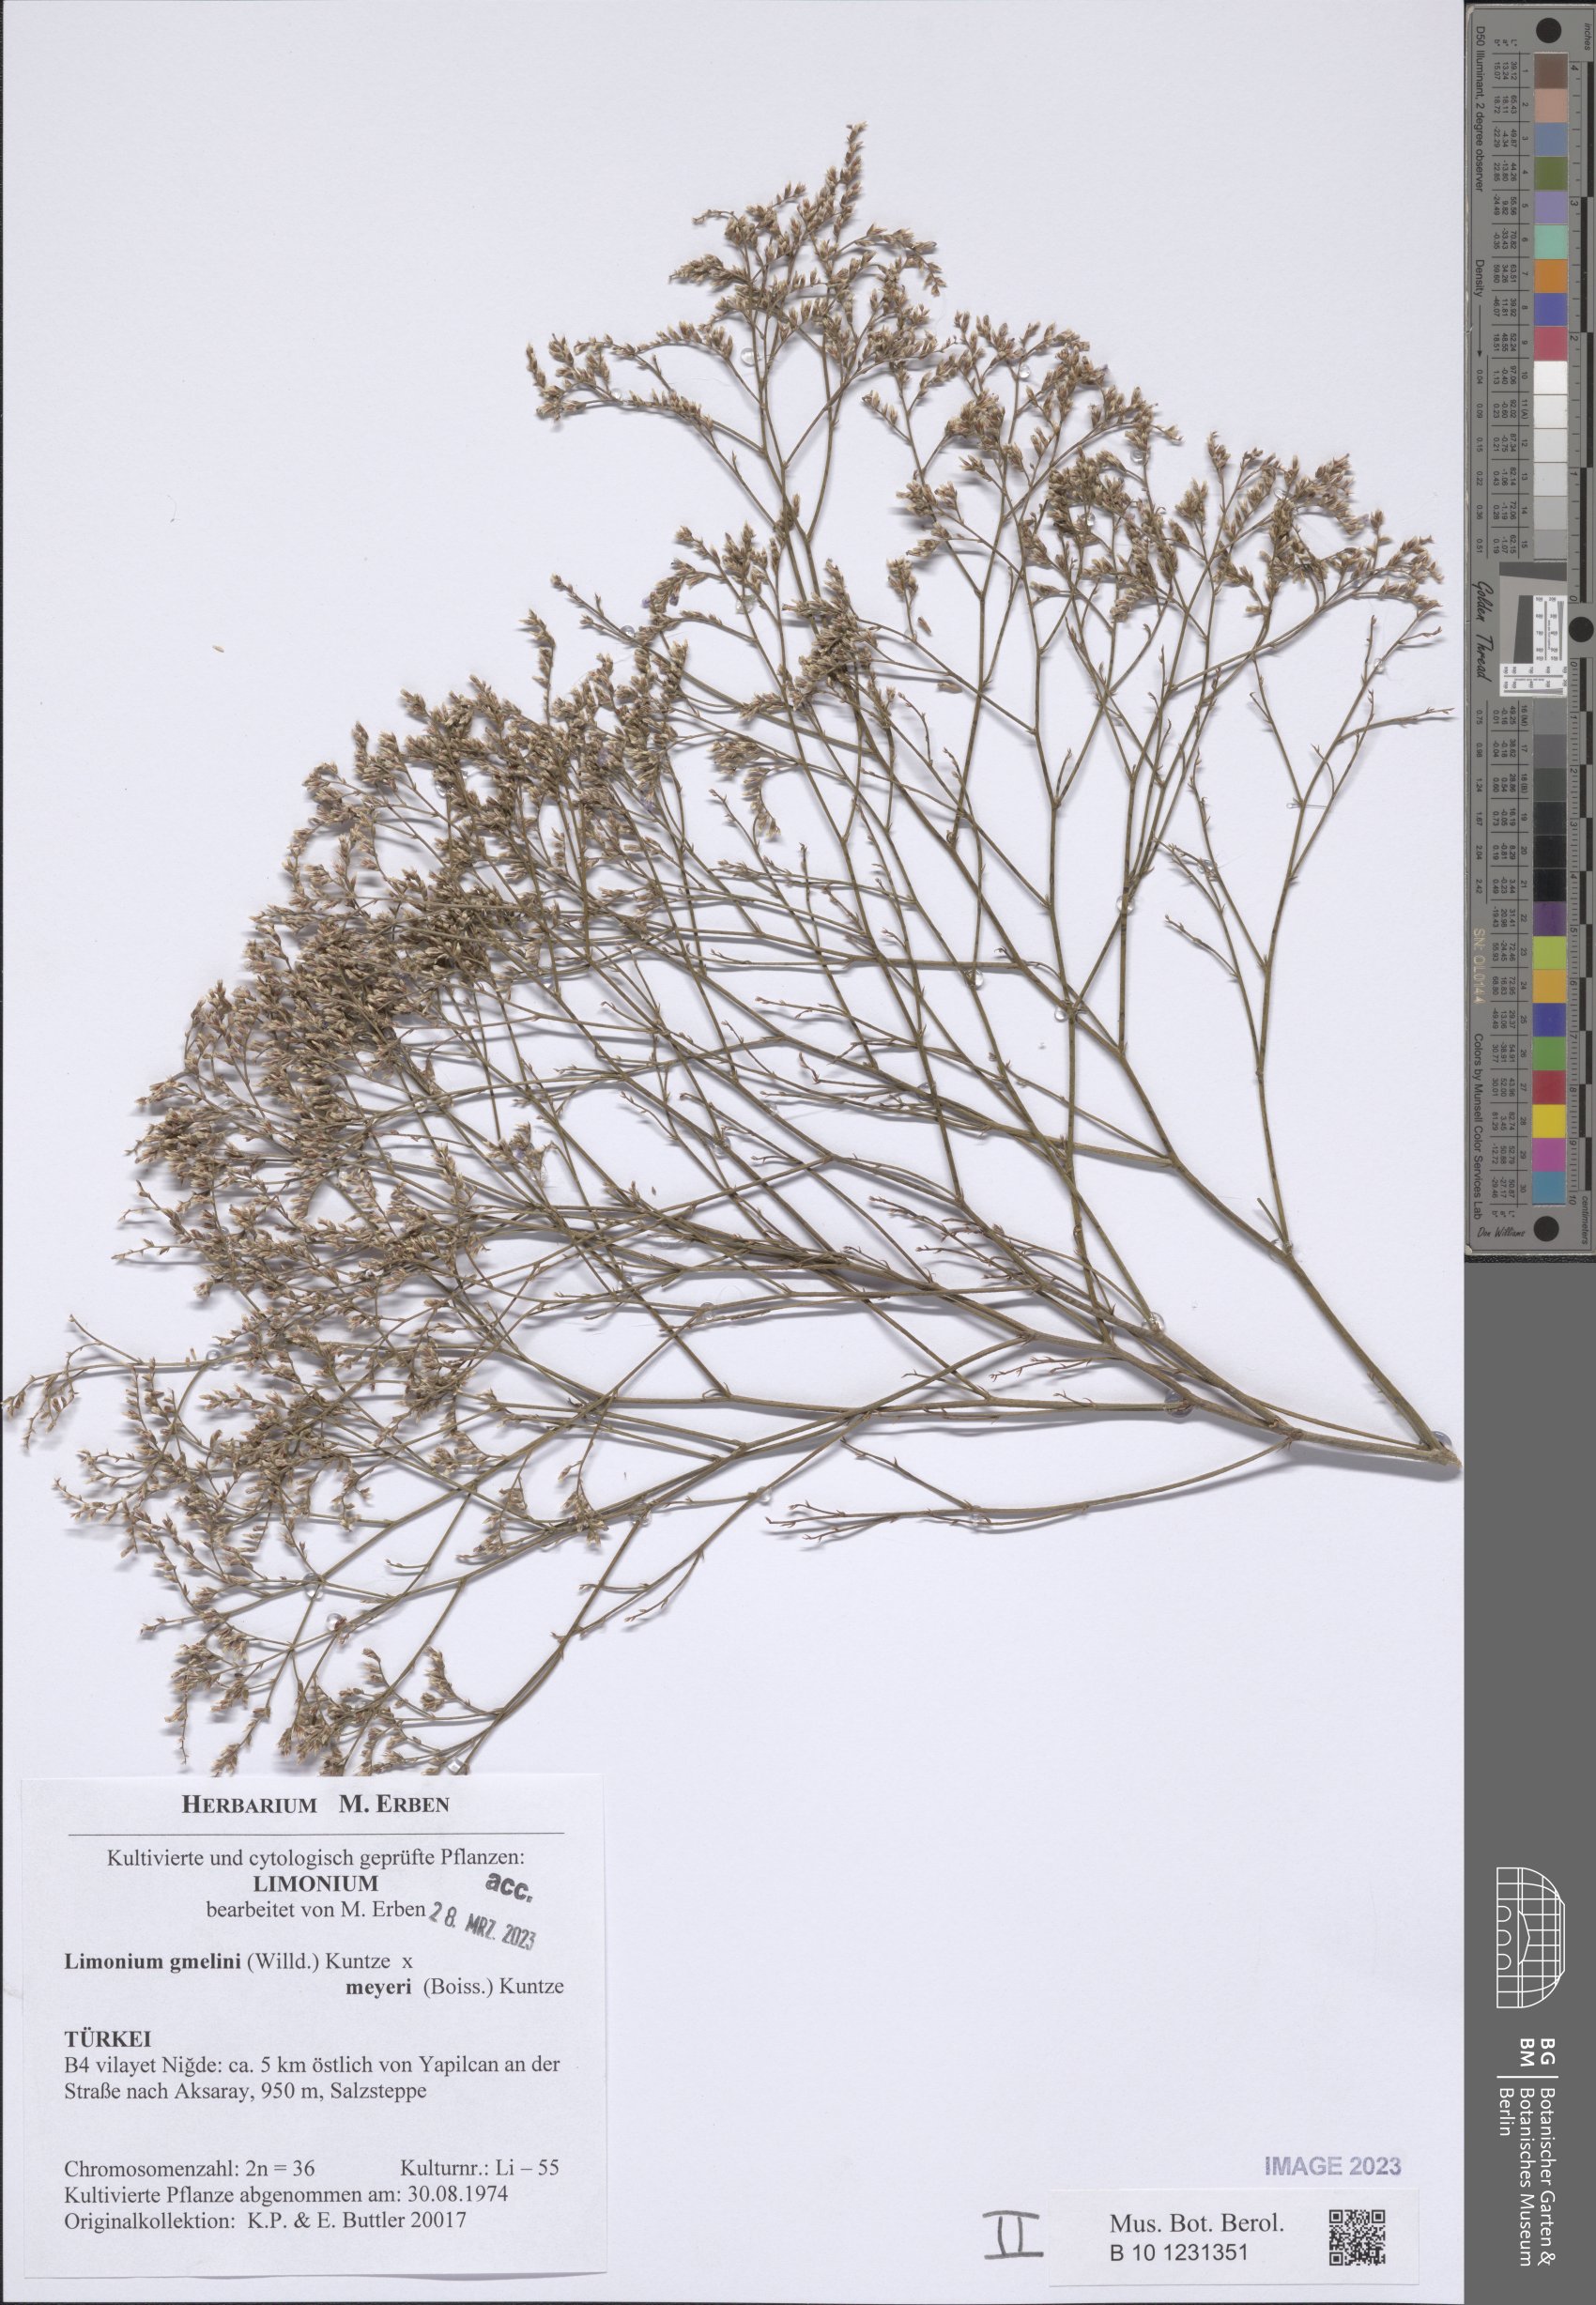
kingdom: Plantae
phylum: Tracheophyta
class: Magnoliopsida
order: Caryophyllales
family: Plumbaginaceae
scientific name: Plumbaginaceae
